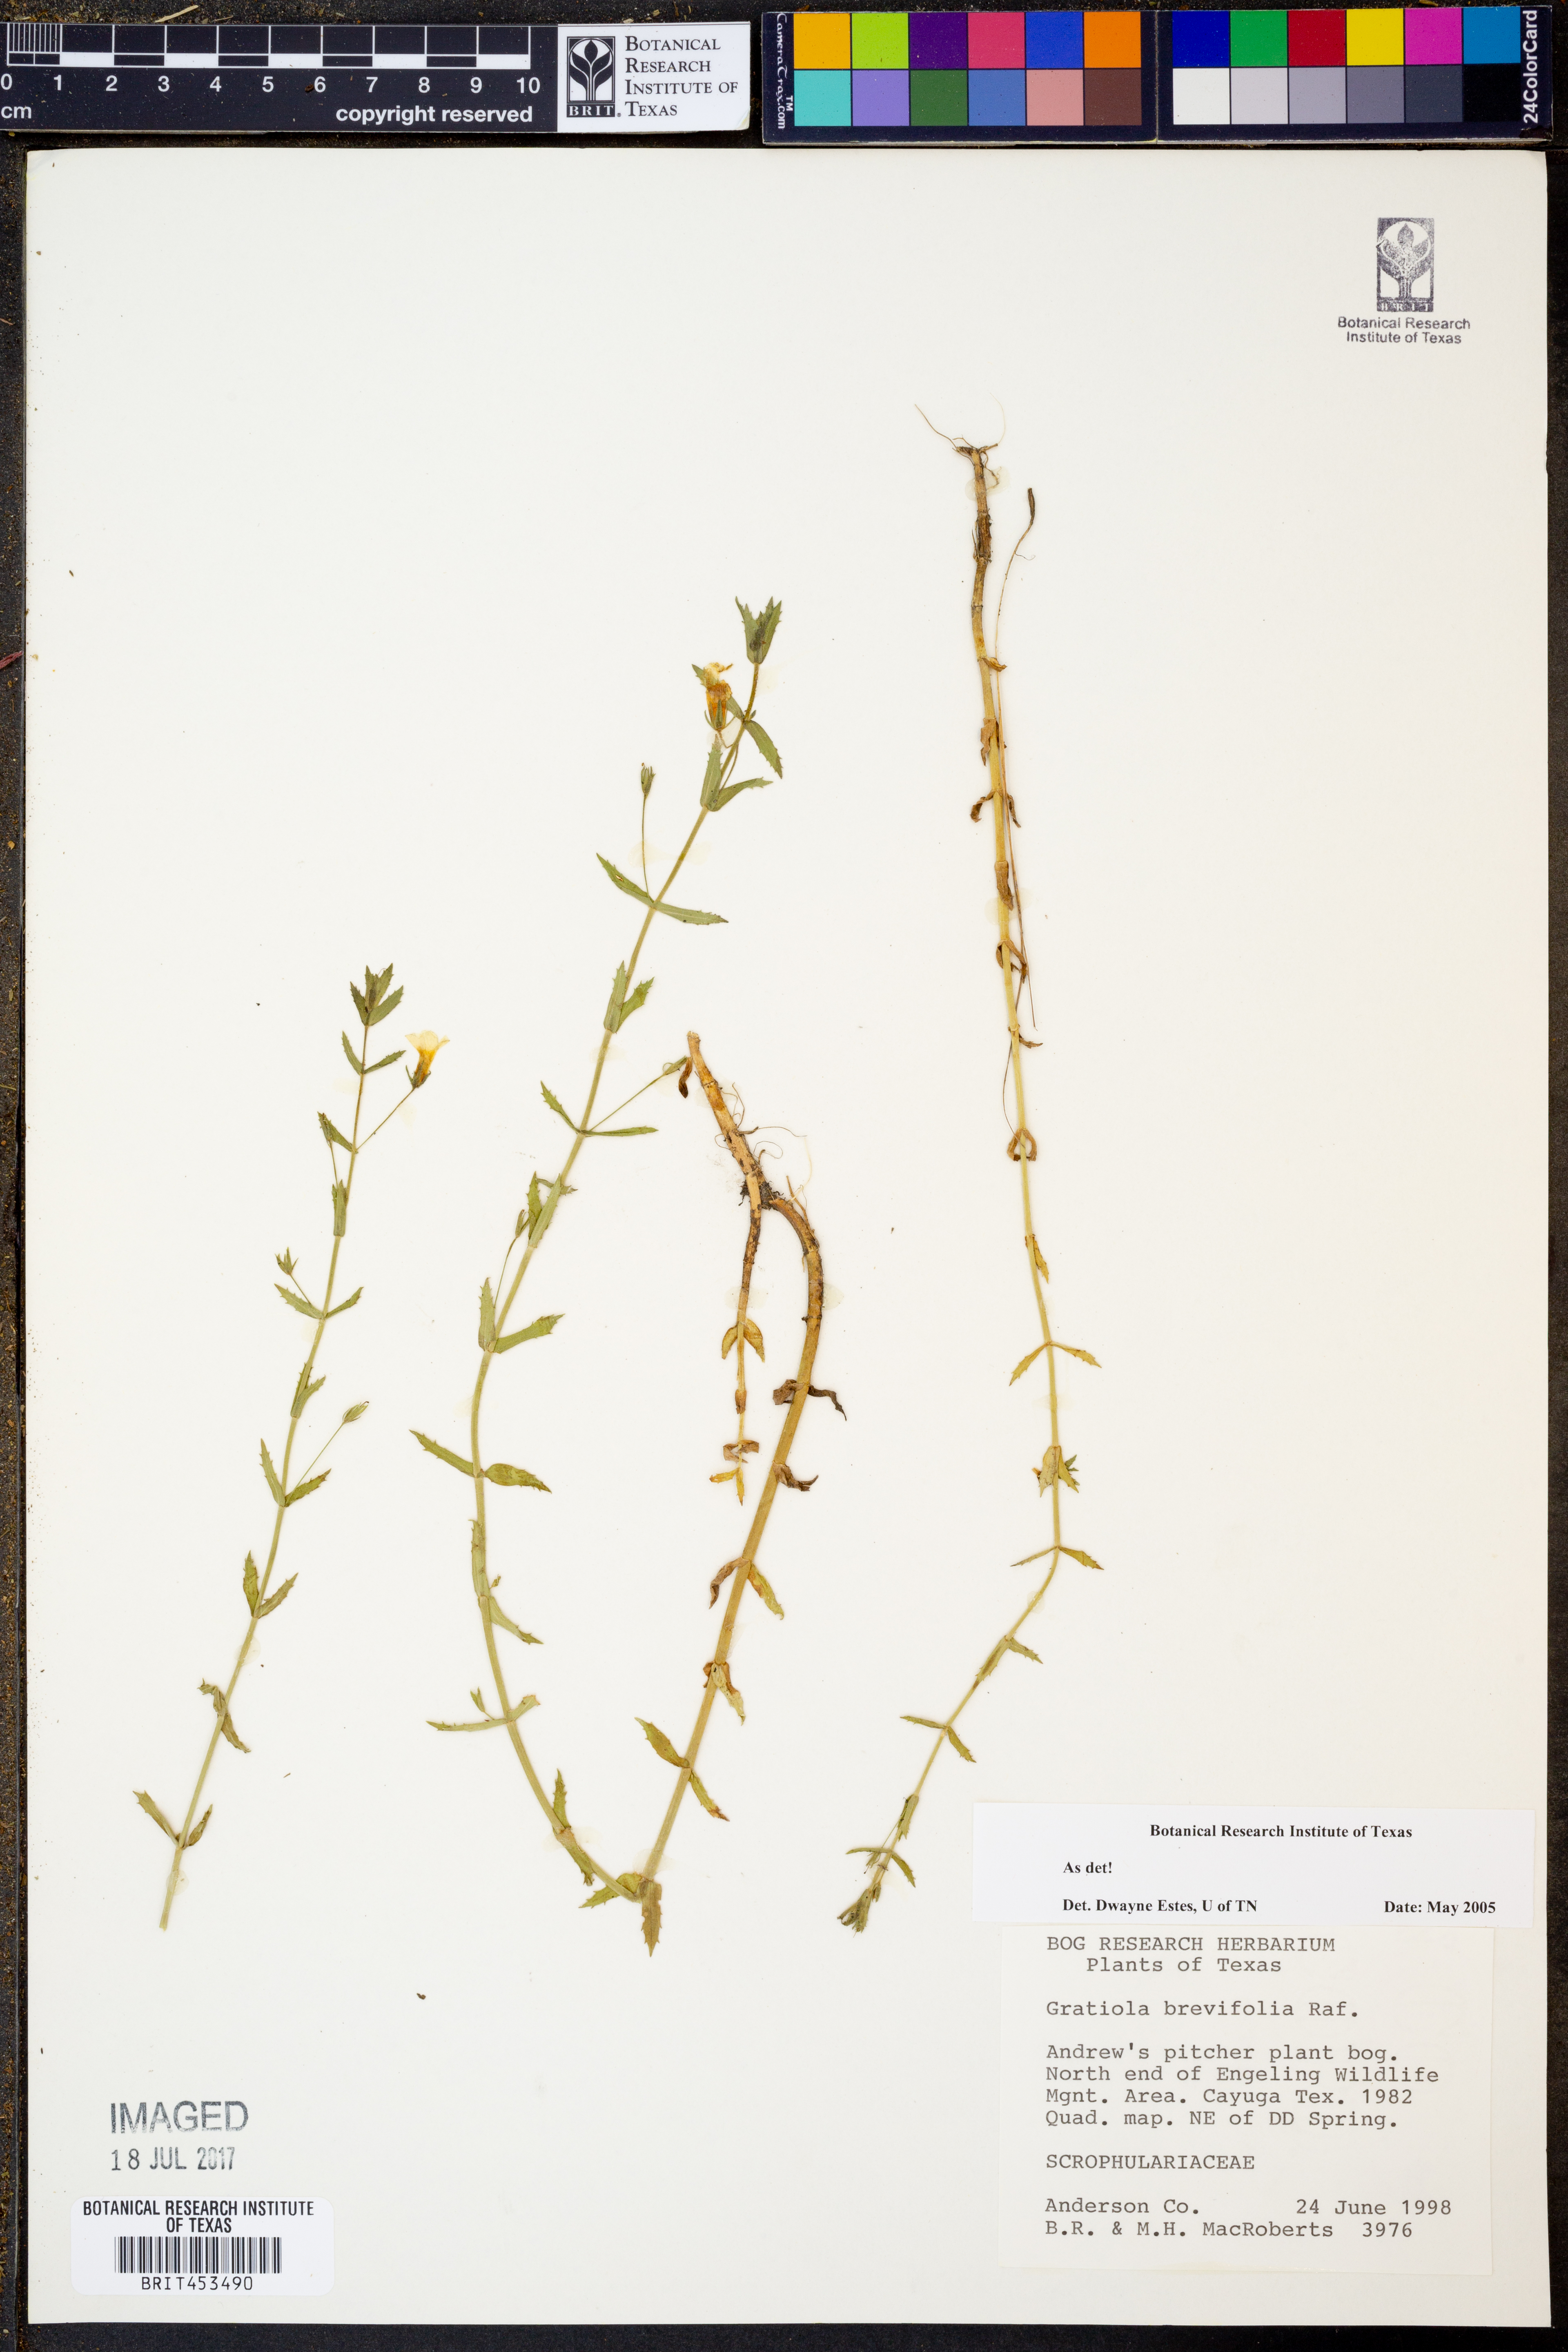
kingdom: Plantae
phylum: Tracheophyta
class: Magnoliopsida
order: Lamiales
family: Plantaginaceae
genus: Gratiola
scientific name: Gratiola brevifolia
